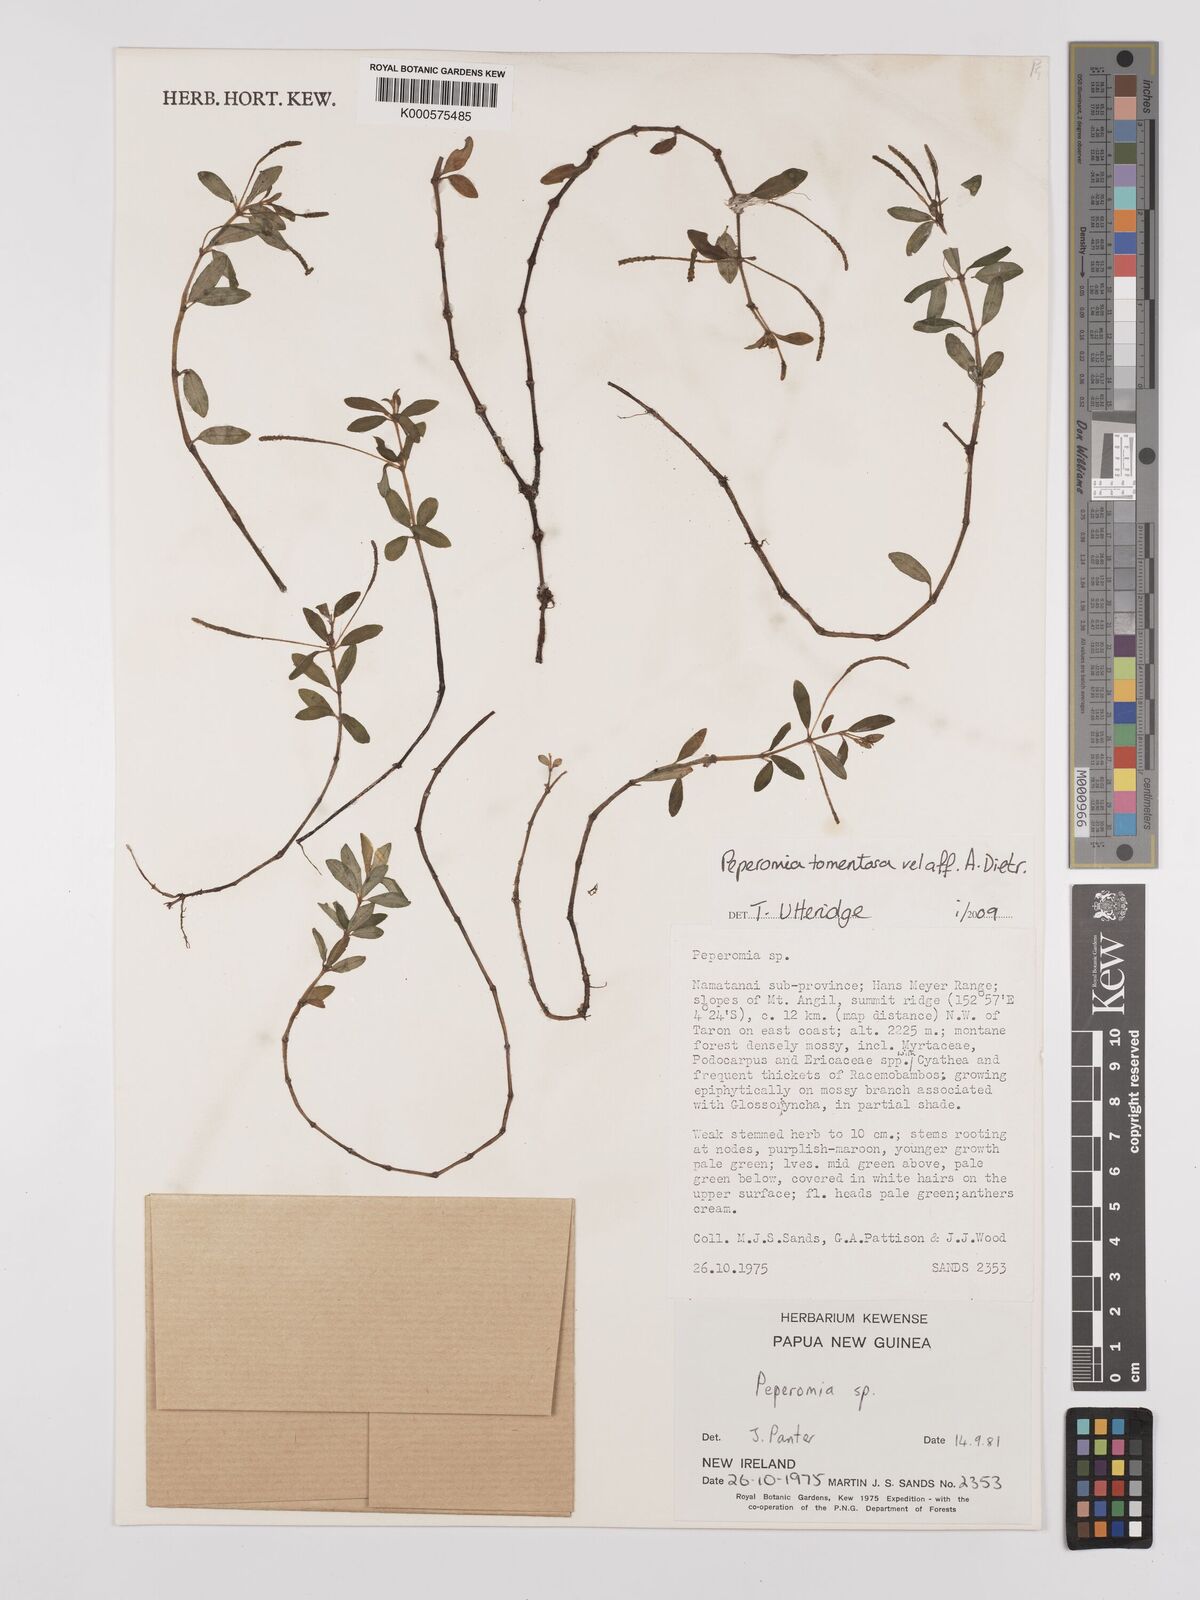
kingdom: Plantae
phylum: Tracheophyta
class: Magnoliopsida
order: Piperales
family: Piperaceae
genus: Peperomia
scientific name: Peperomia
